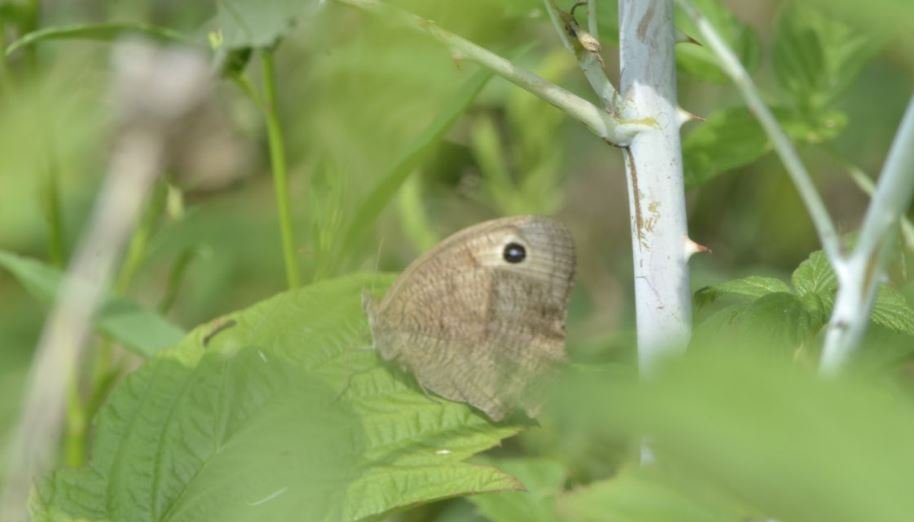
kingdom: Animalia
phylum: Arthropoda
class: Insecta
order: Lepidoptera
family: Nymphalidae
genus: Cercyonis
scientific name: Cercyonis pegala
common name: Common Wood-Nymph
